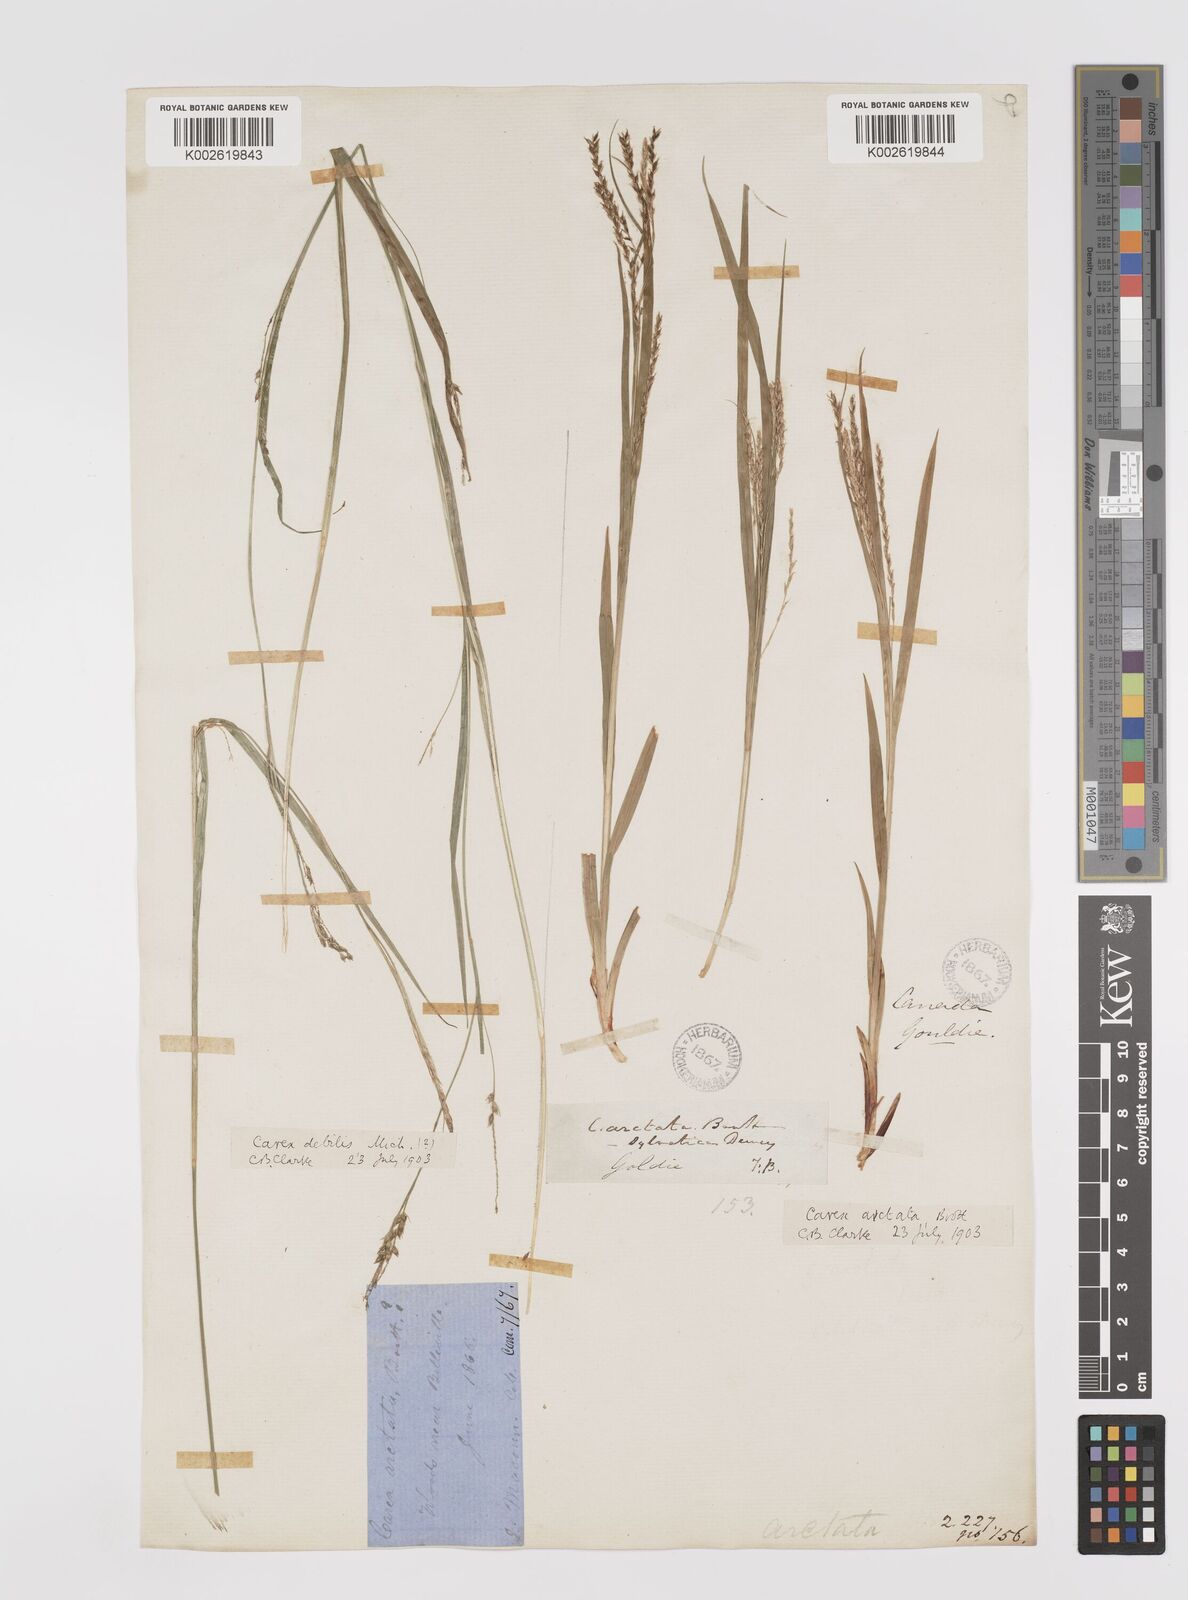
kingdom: Plantae
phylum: Tracheophyta
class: Liliopsida
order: Poales
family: Cyperaceae
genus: Carex
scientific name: Carex arctata
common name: Black sedge
